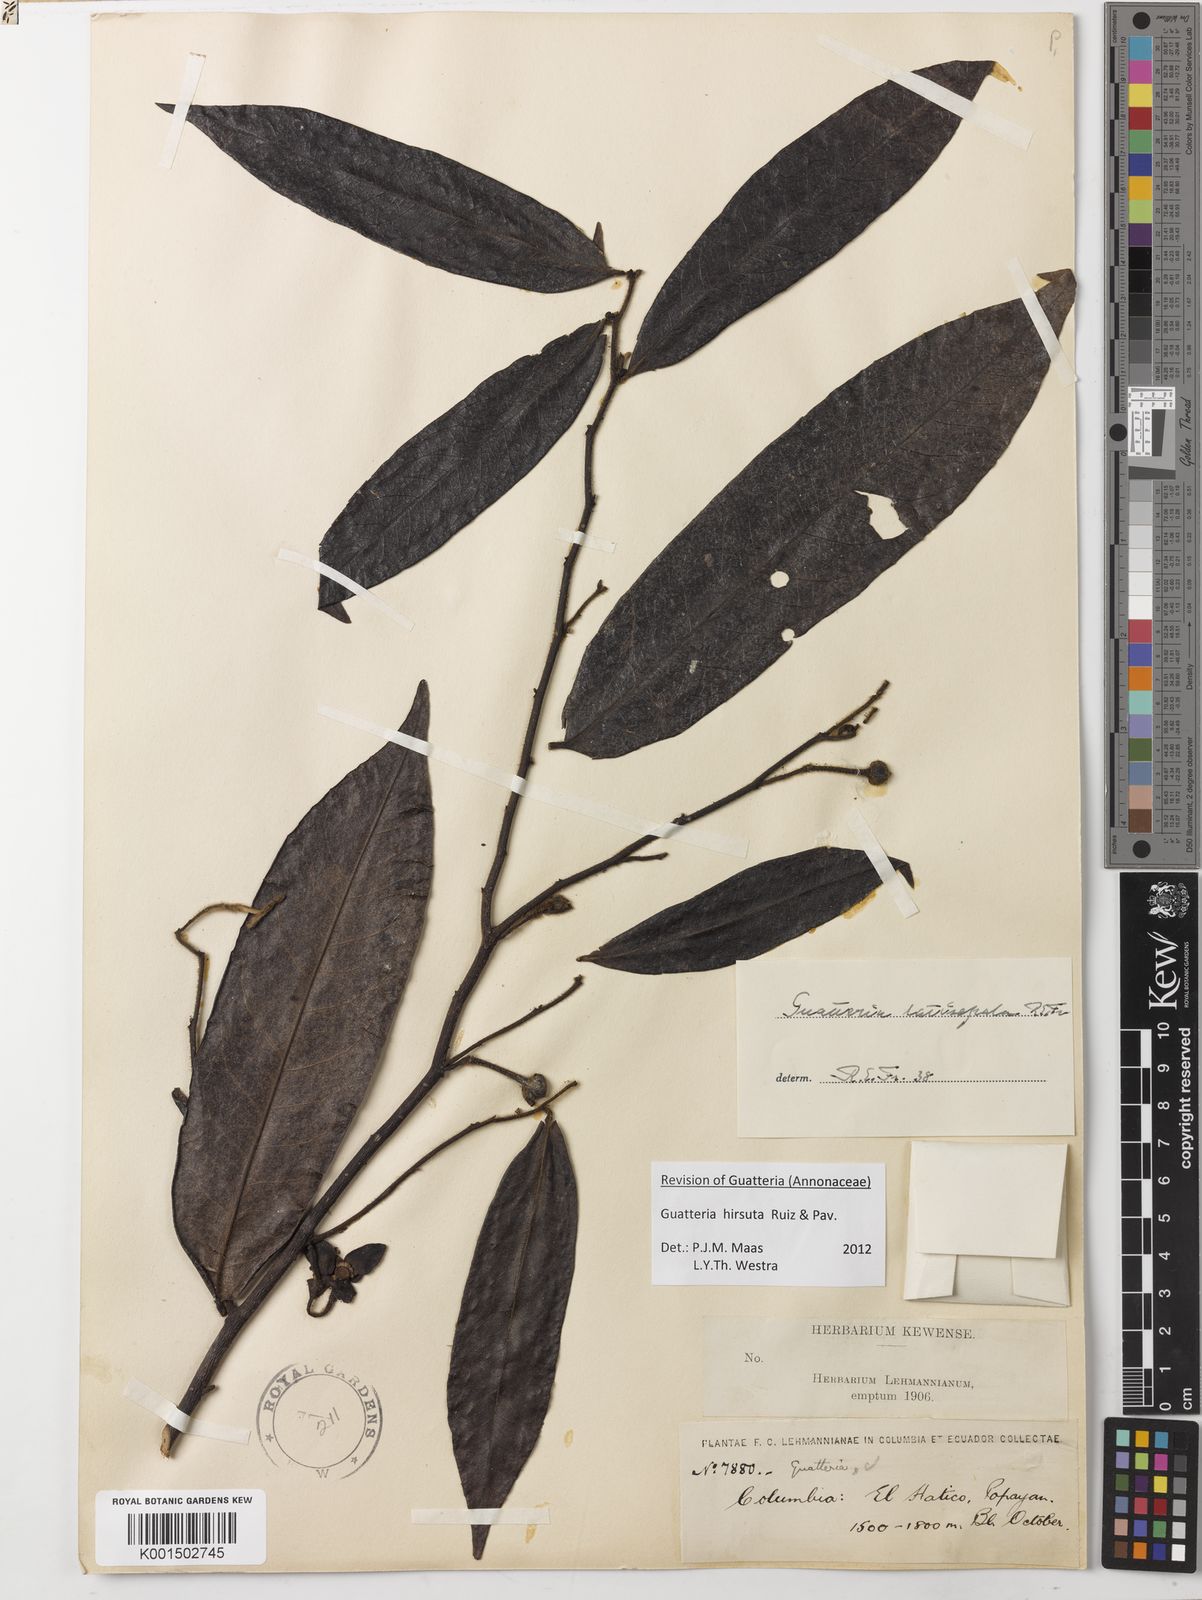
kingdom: Plantae
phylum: Tracheophyta
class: Magnoliopsida
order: Magnoliales
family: Annonaceae
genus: Guatteria
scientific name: Guatteria hirsuta
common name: Laurel
